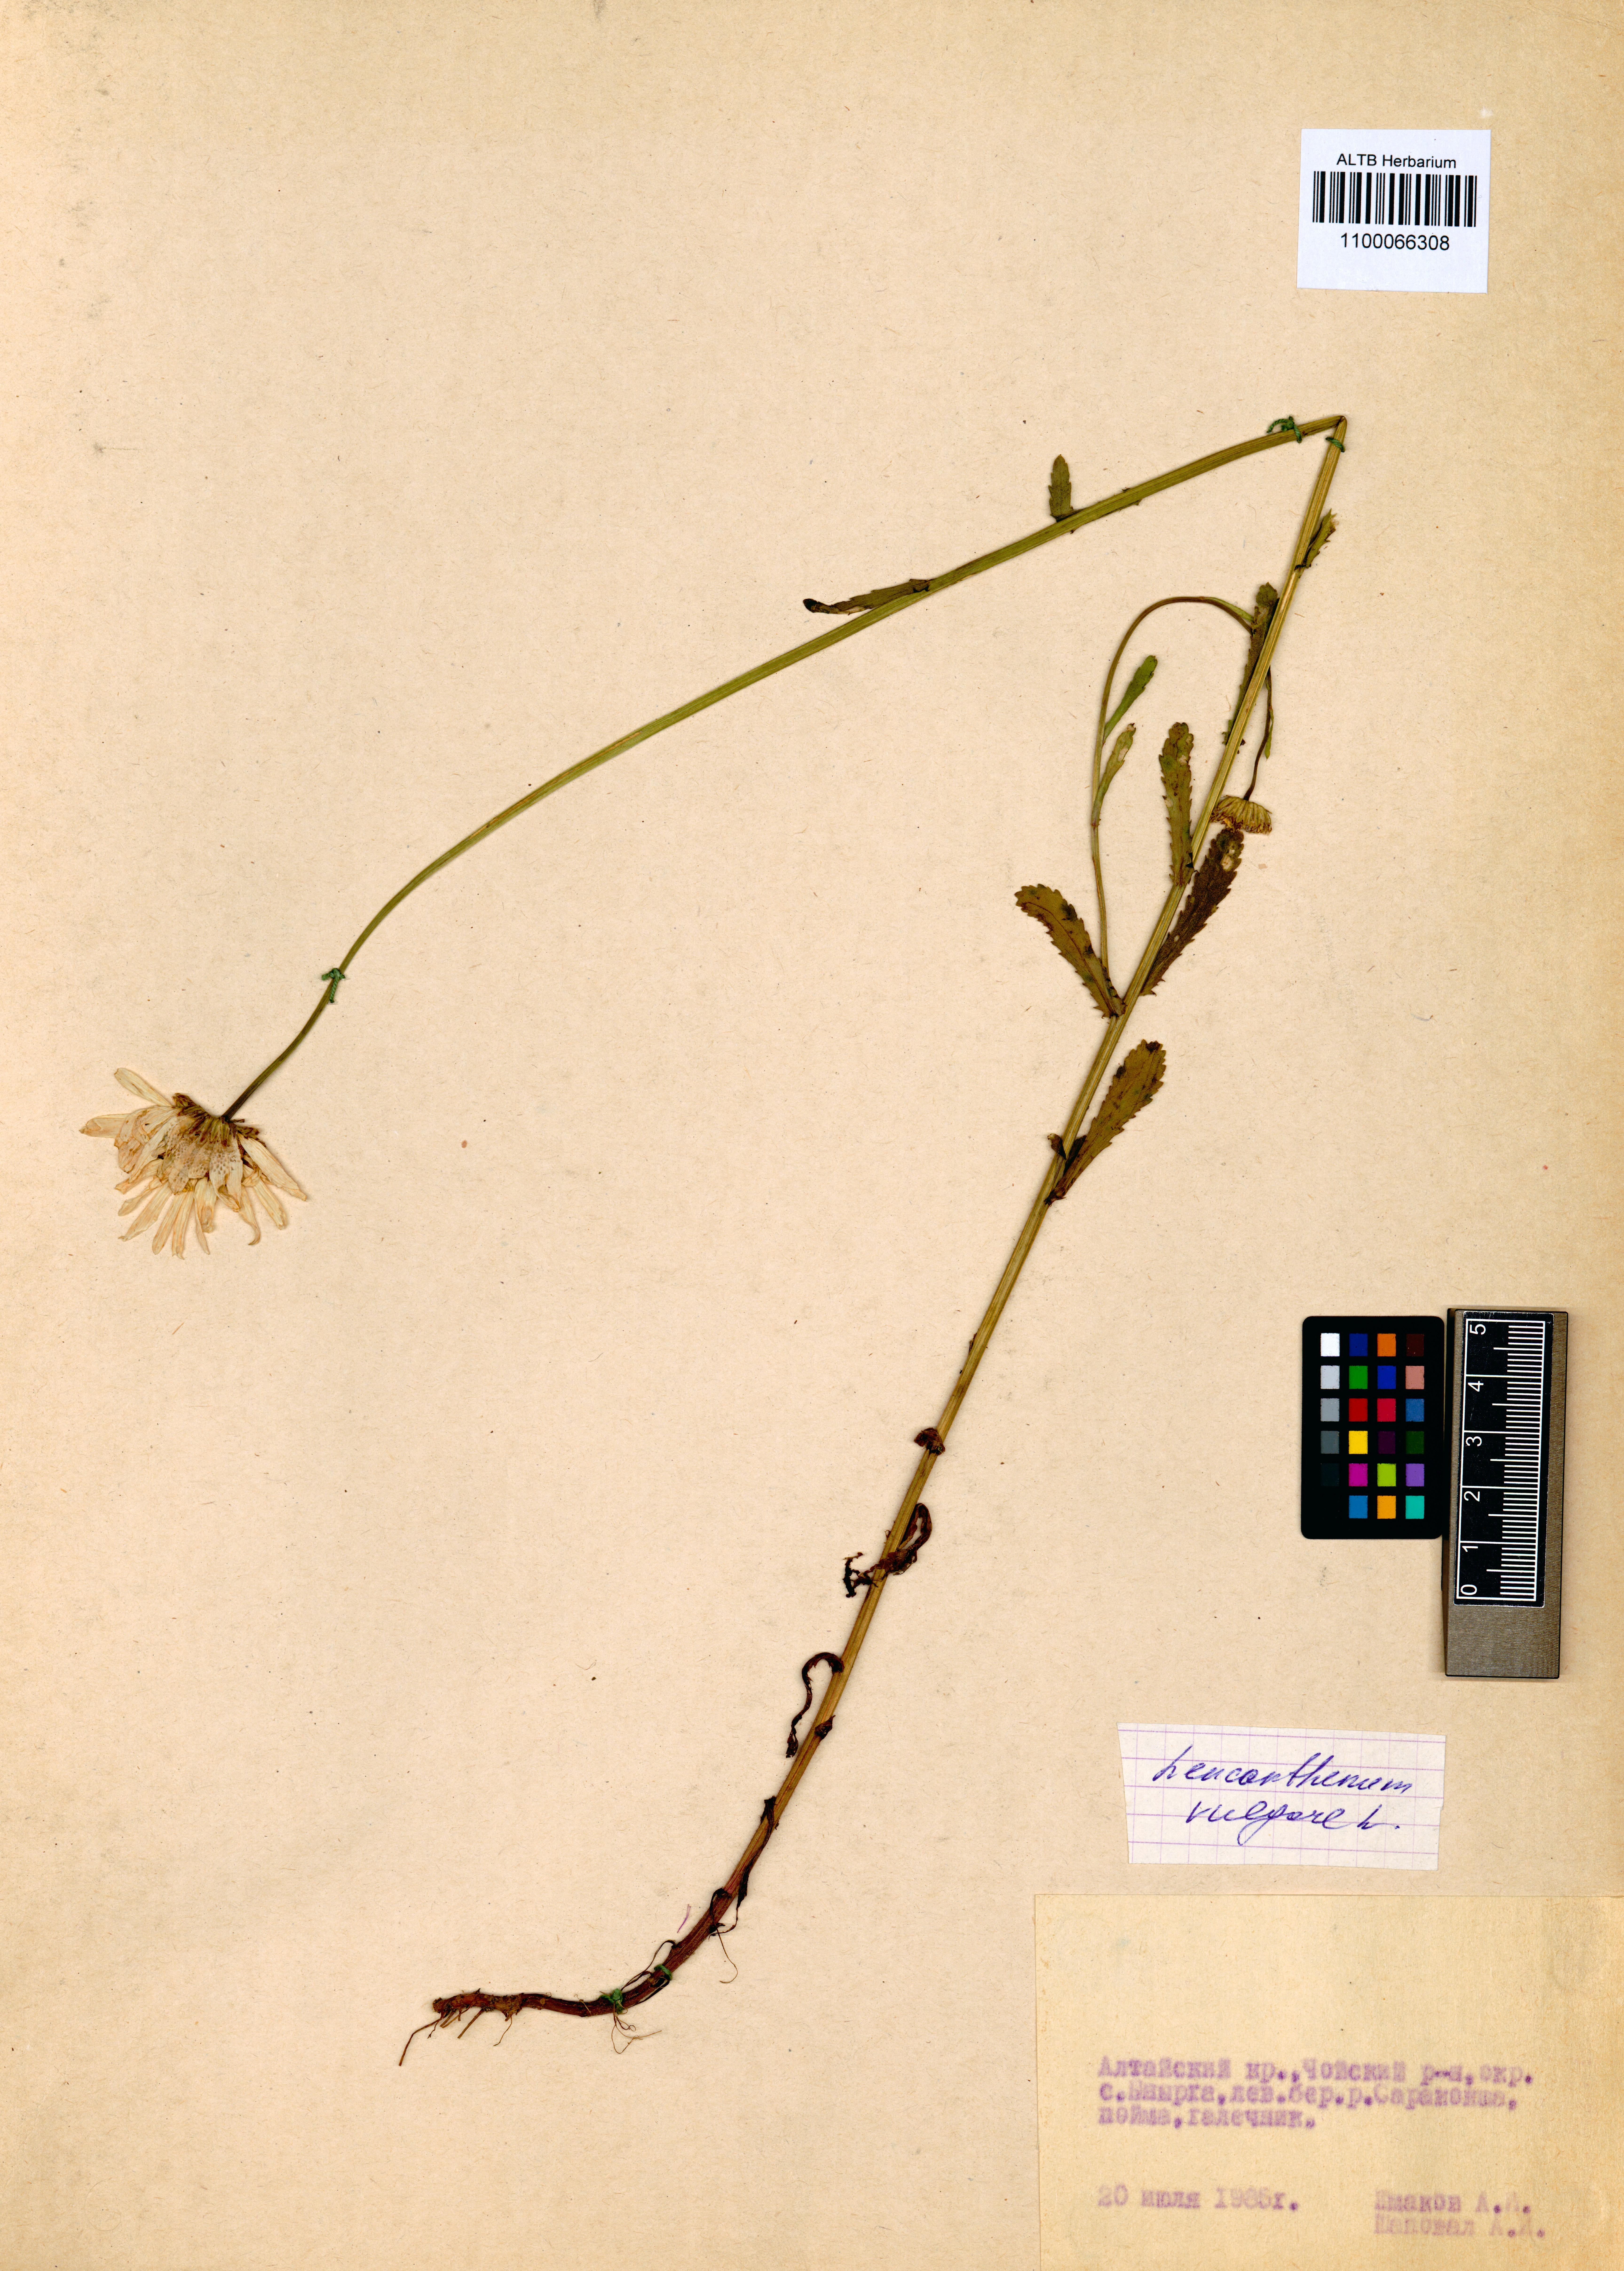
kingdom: Plantae
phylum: Tracheophyta
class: Magnoliopsida
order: Asterales
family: Asteraceae
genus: Leucanthemum
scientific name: Leucanthemum vulgare
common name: Oxeye daisy
